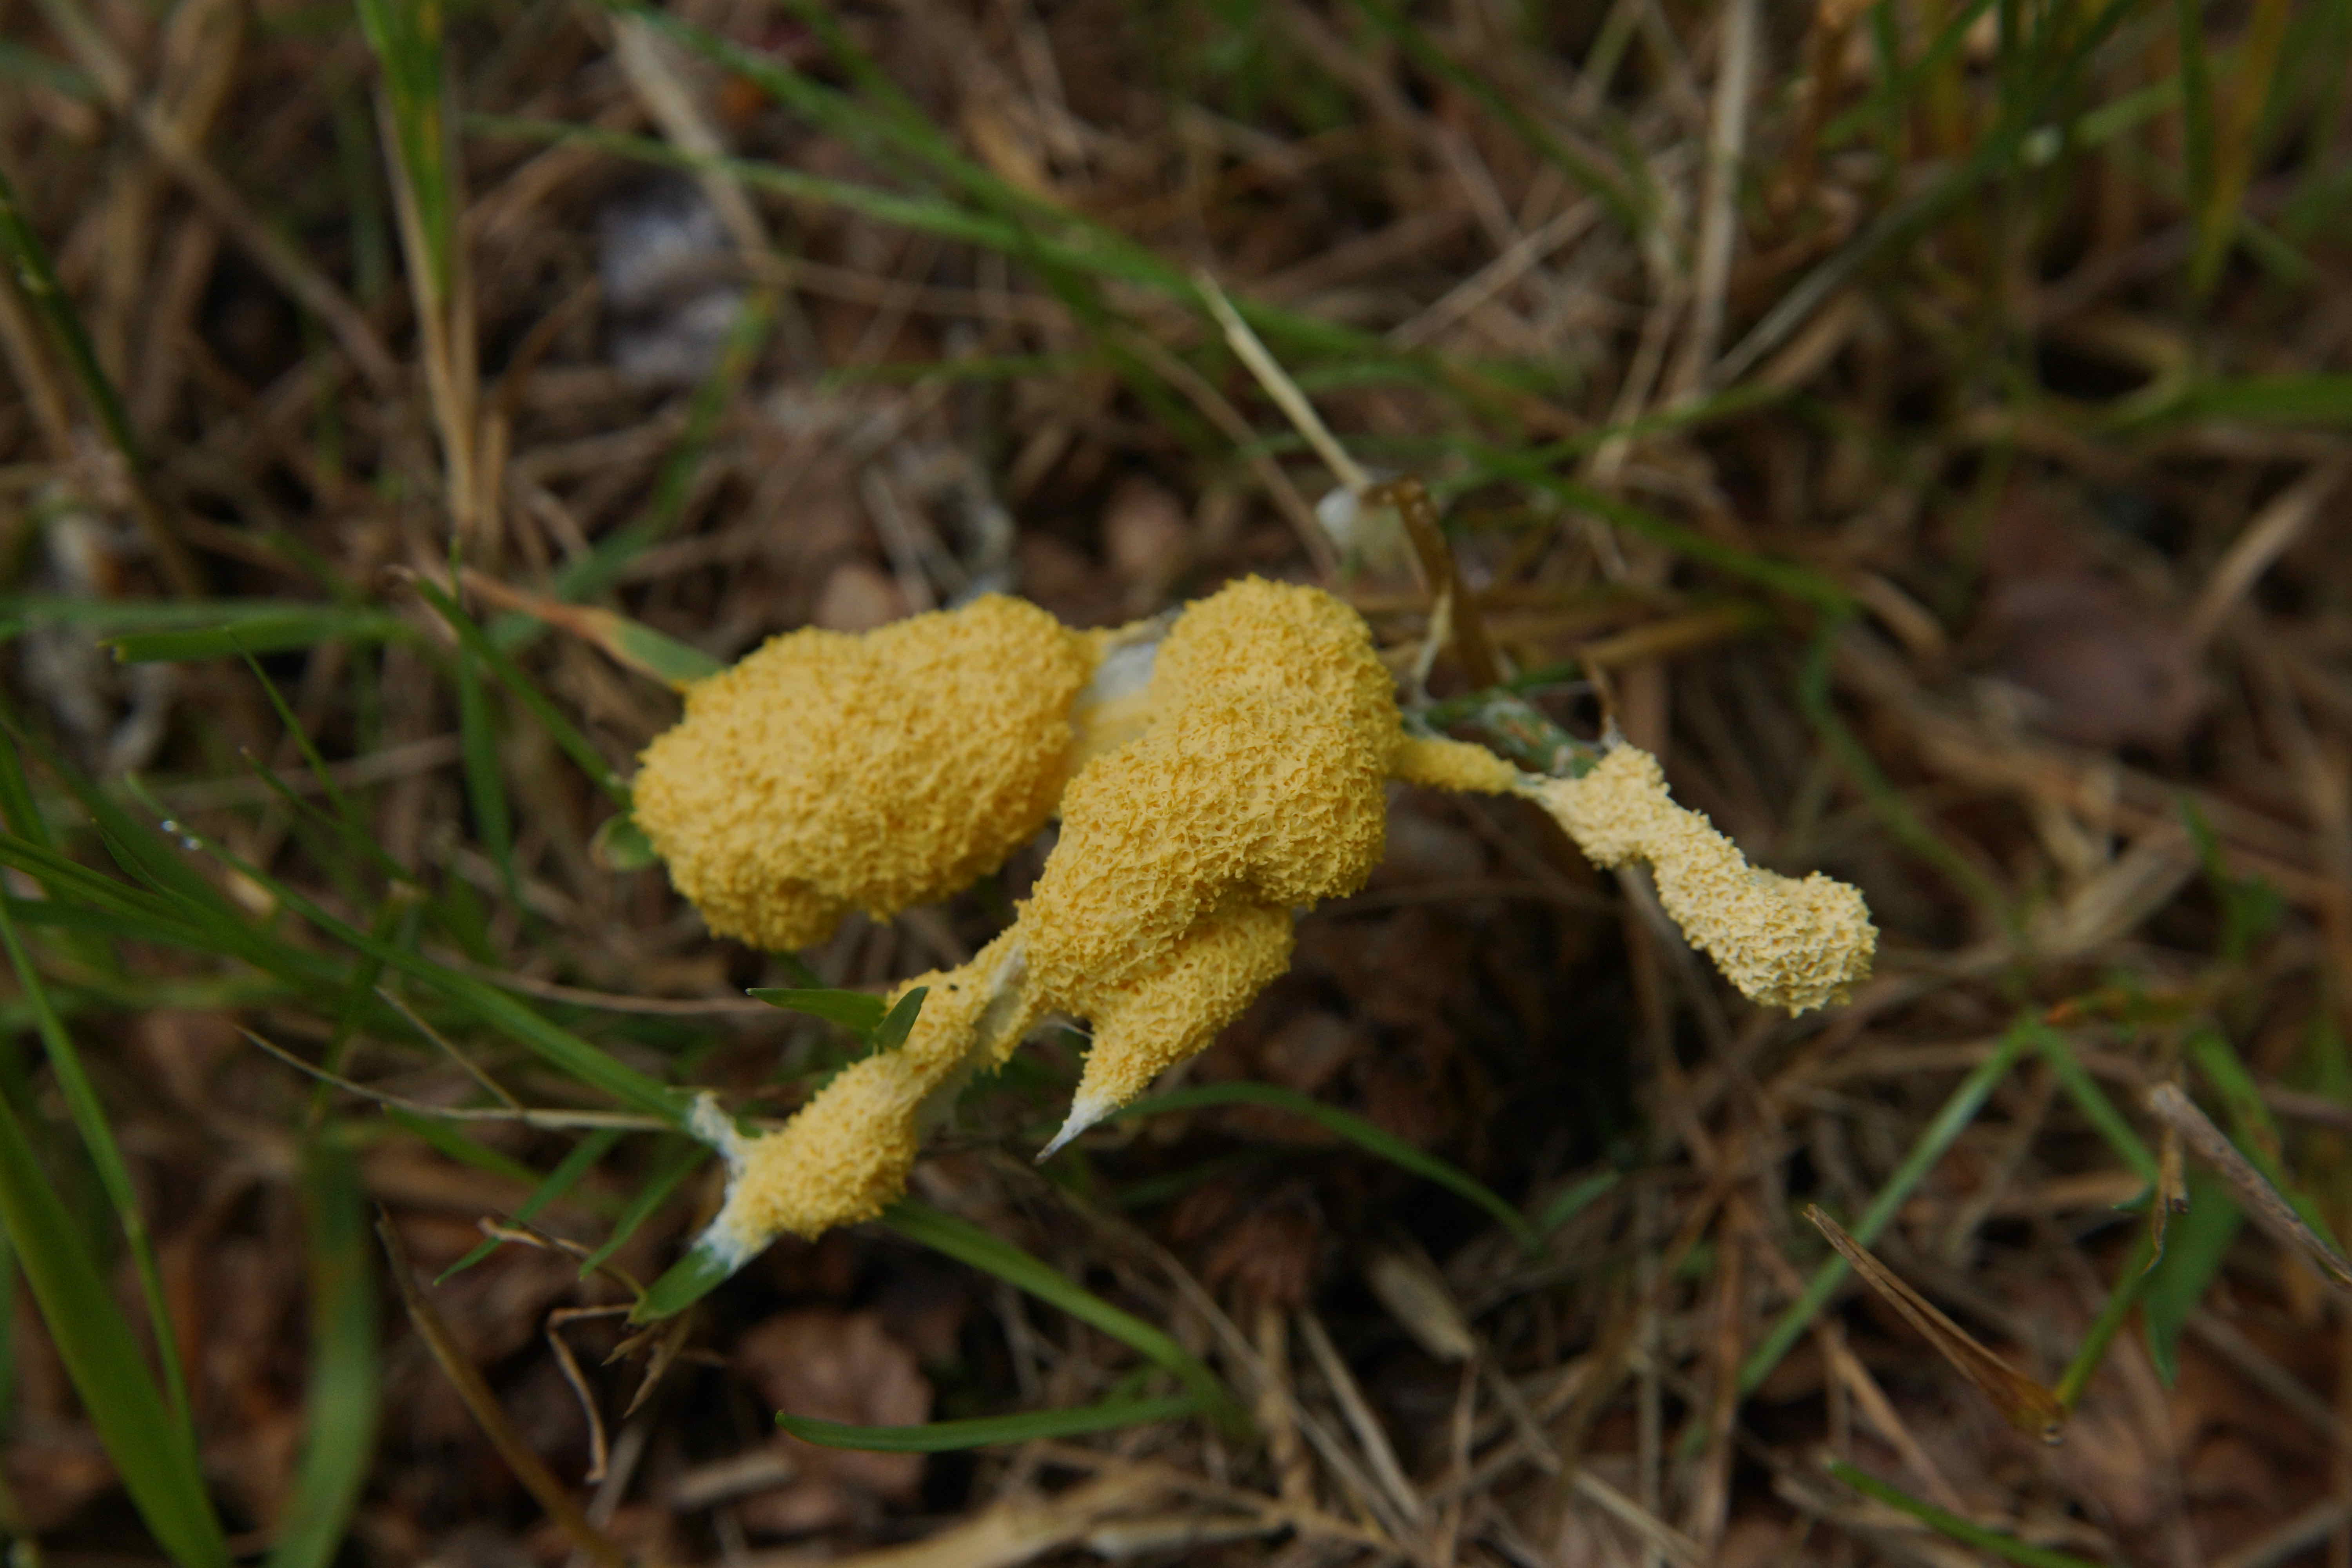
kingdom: Protozoa
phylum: Mycetozoa
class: Myxomycetes
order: Physarales
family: Physaraceae
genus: Fuligo
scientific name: Fuligo septica
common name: gul troldsmør
